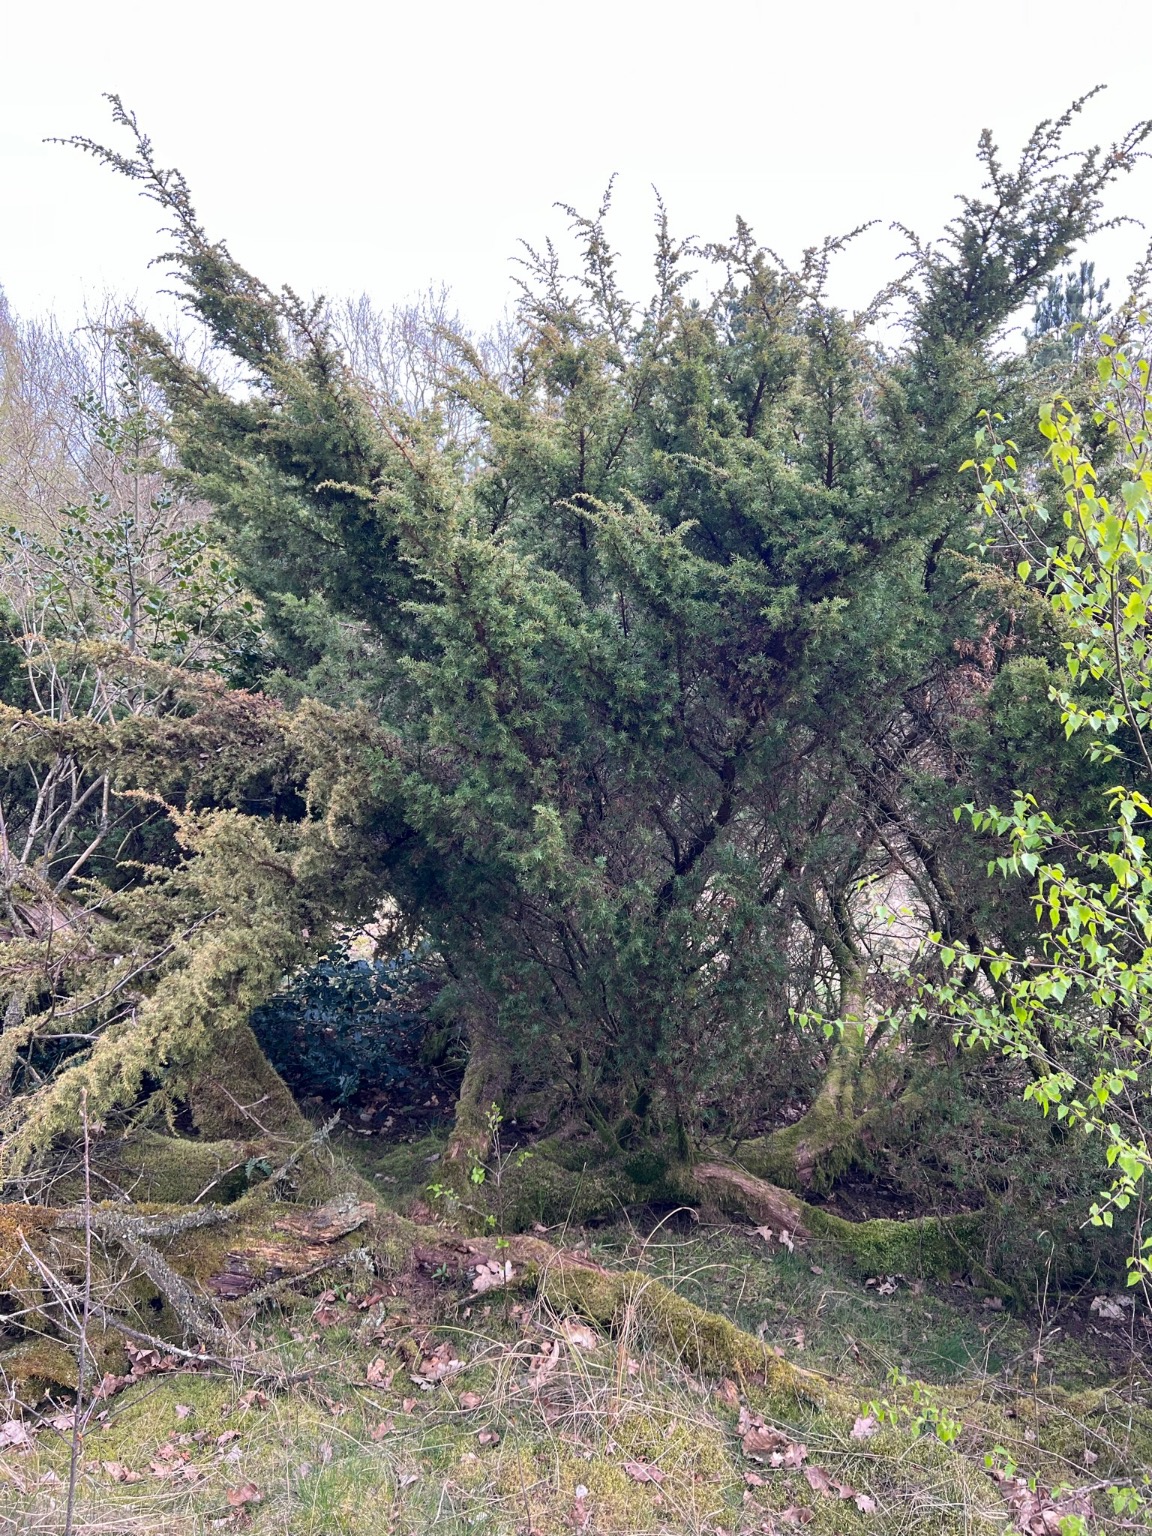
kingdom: Plantae
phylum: Tracheophyta
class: Pinopsida
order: Pinales
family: Cupressaceae
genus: Juniperus
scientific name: Juniperus communis
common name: Almindelig ene
